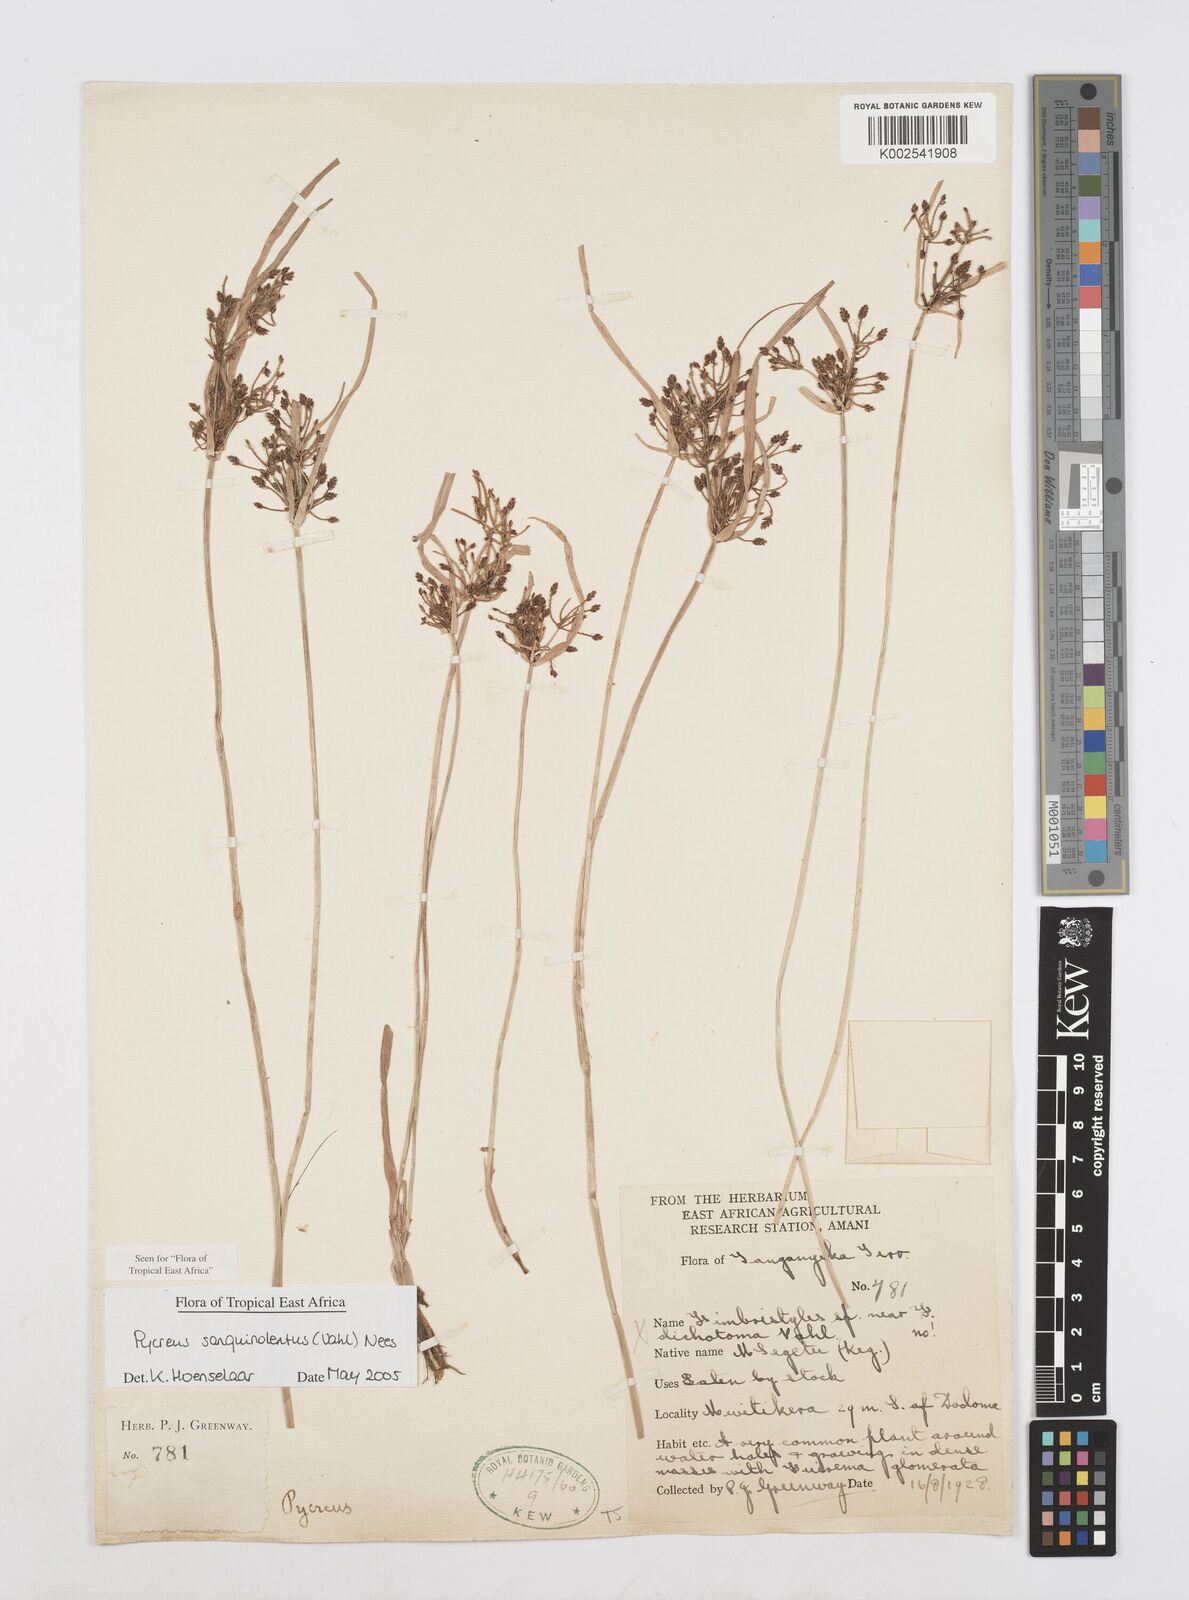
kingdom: Plantae
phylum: Tracheophyta
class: Liliopsida
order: Poales
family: Cyperaceae
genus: Cyperus
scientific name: Cyperus sanguinolentus
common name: Purpleglume flatsedge
